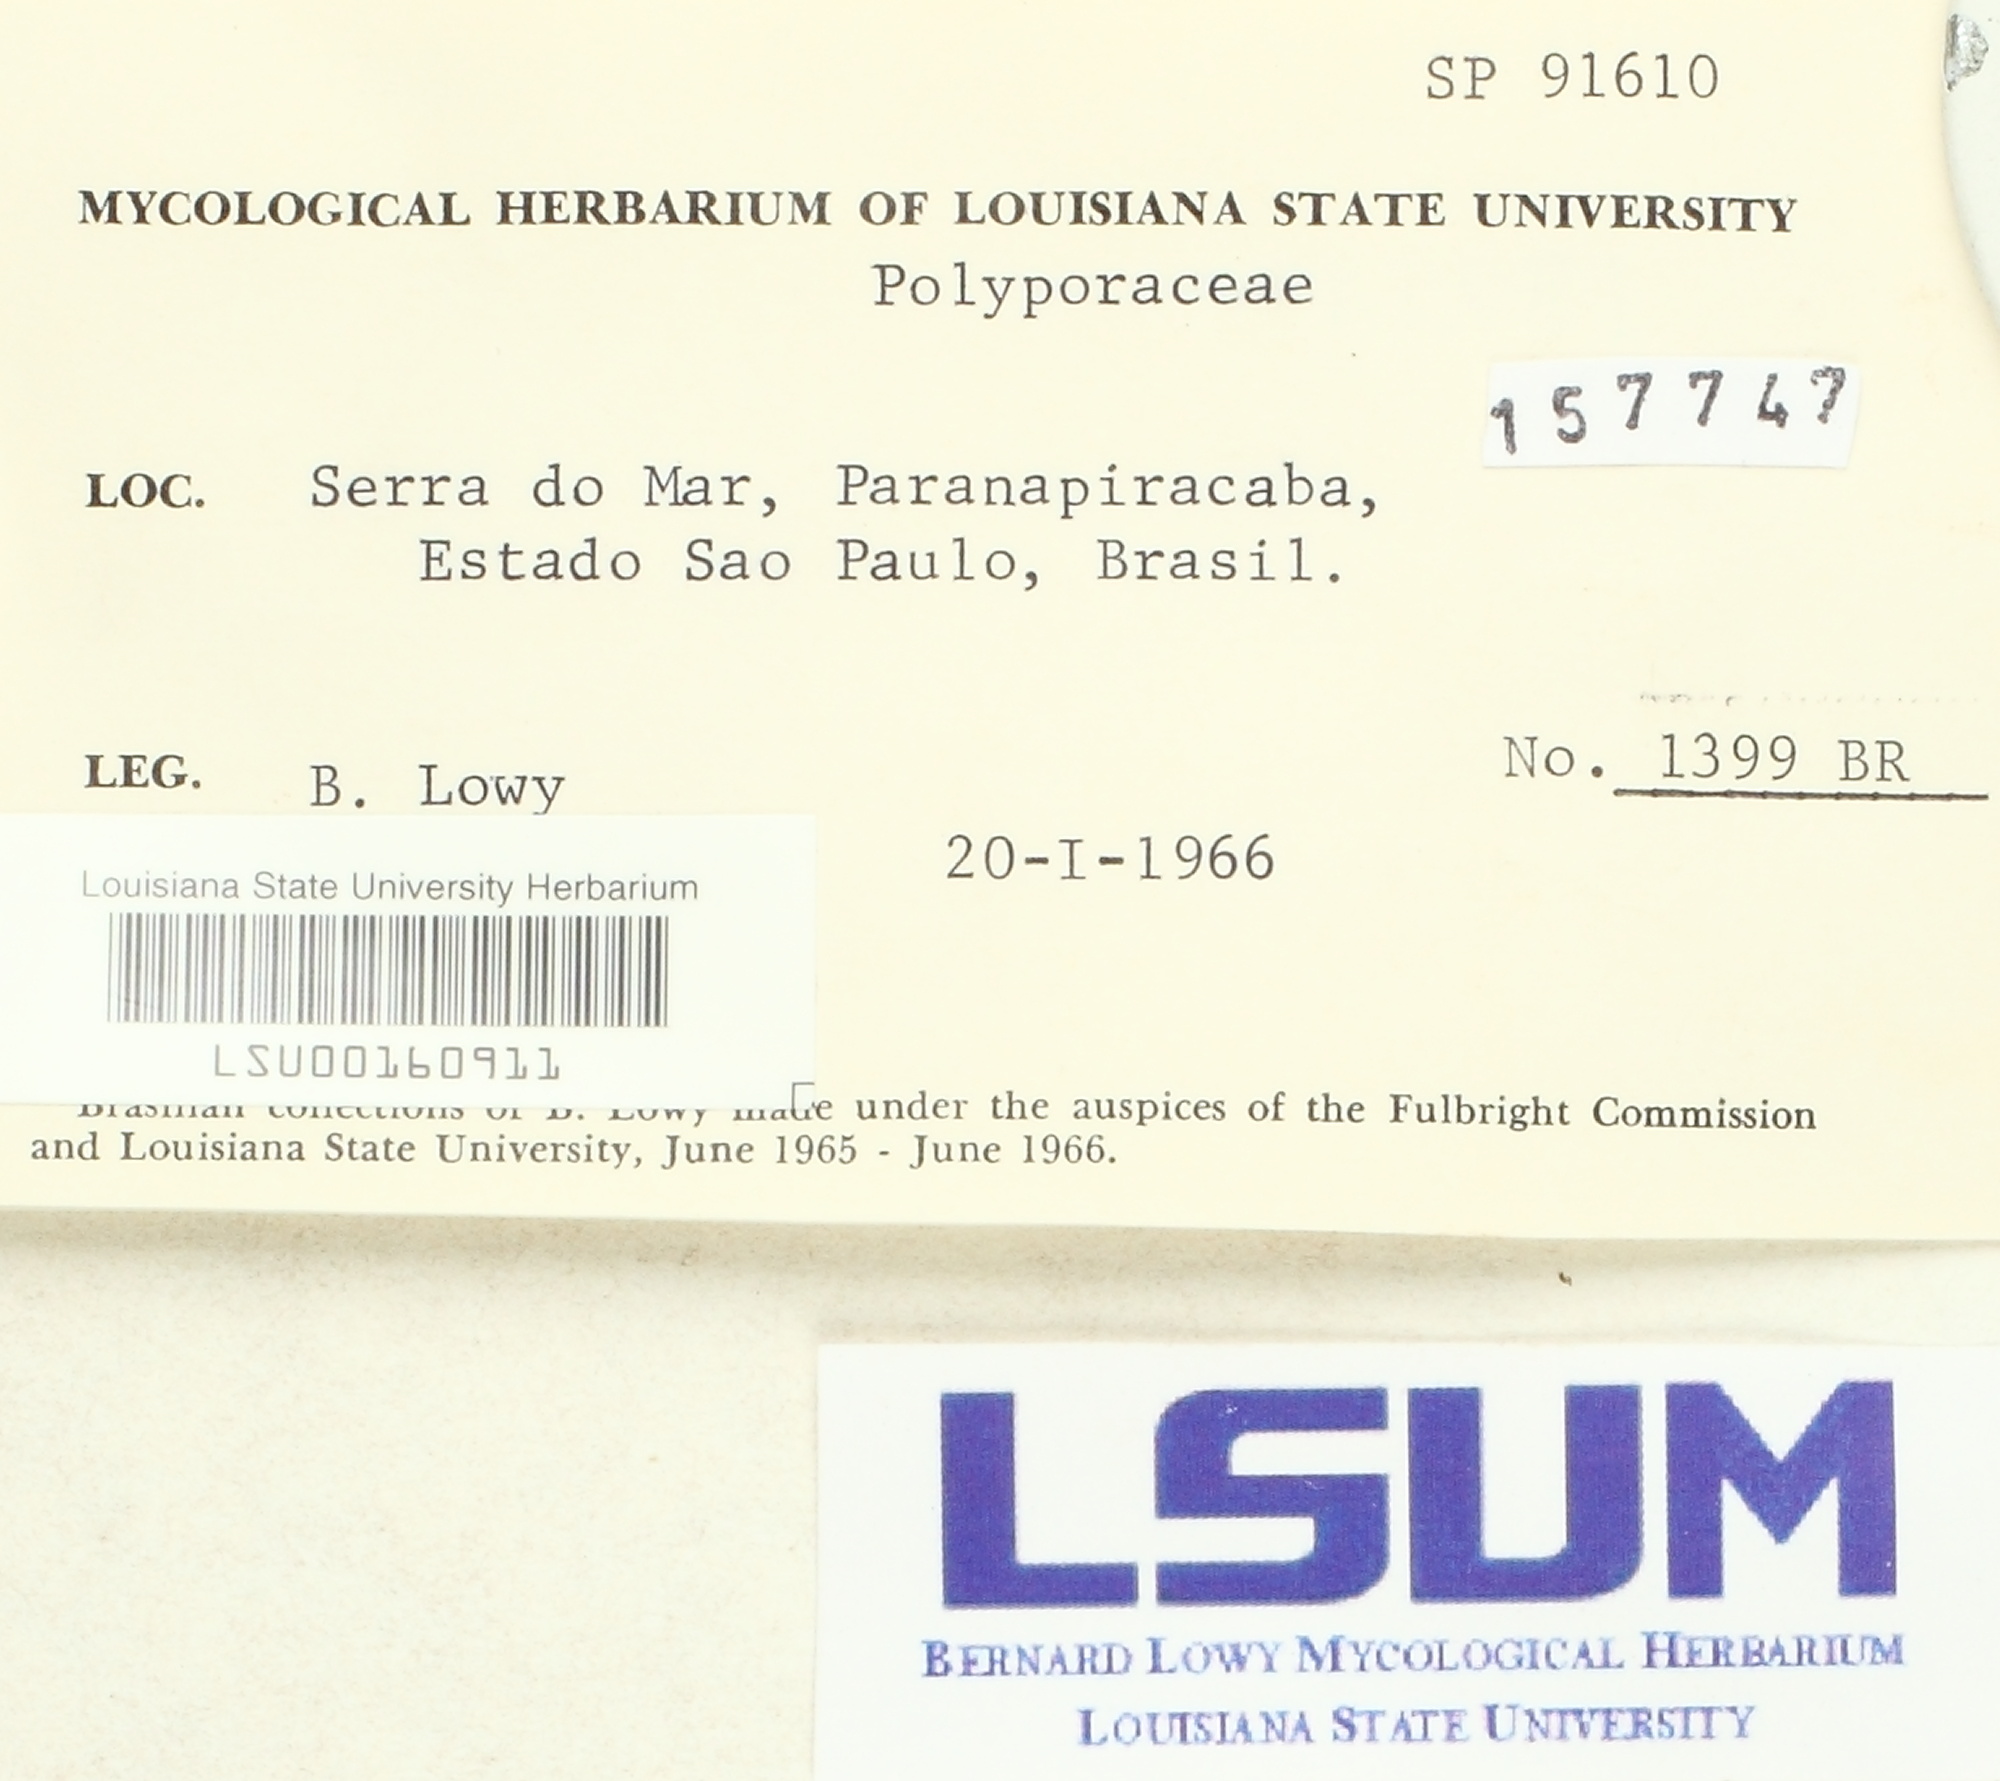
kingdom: Fungi
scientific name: Fungi
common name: Fungi
